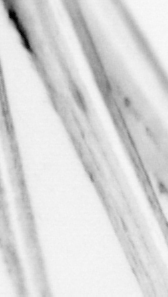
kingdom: Animalia
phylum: Chordata
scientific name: Chordata
